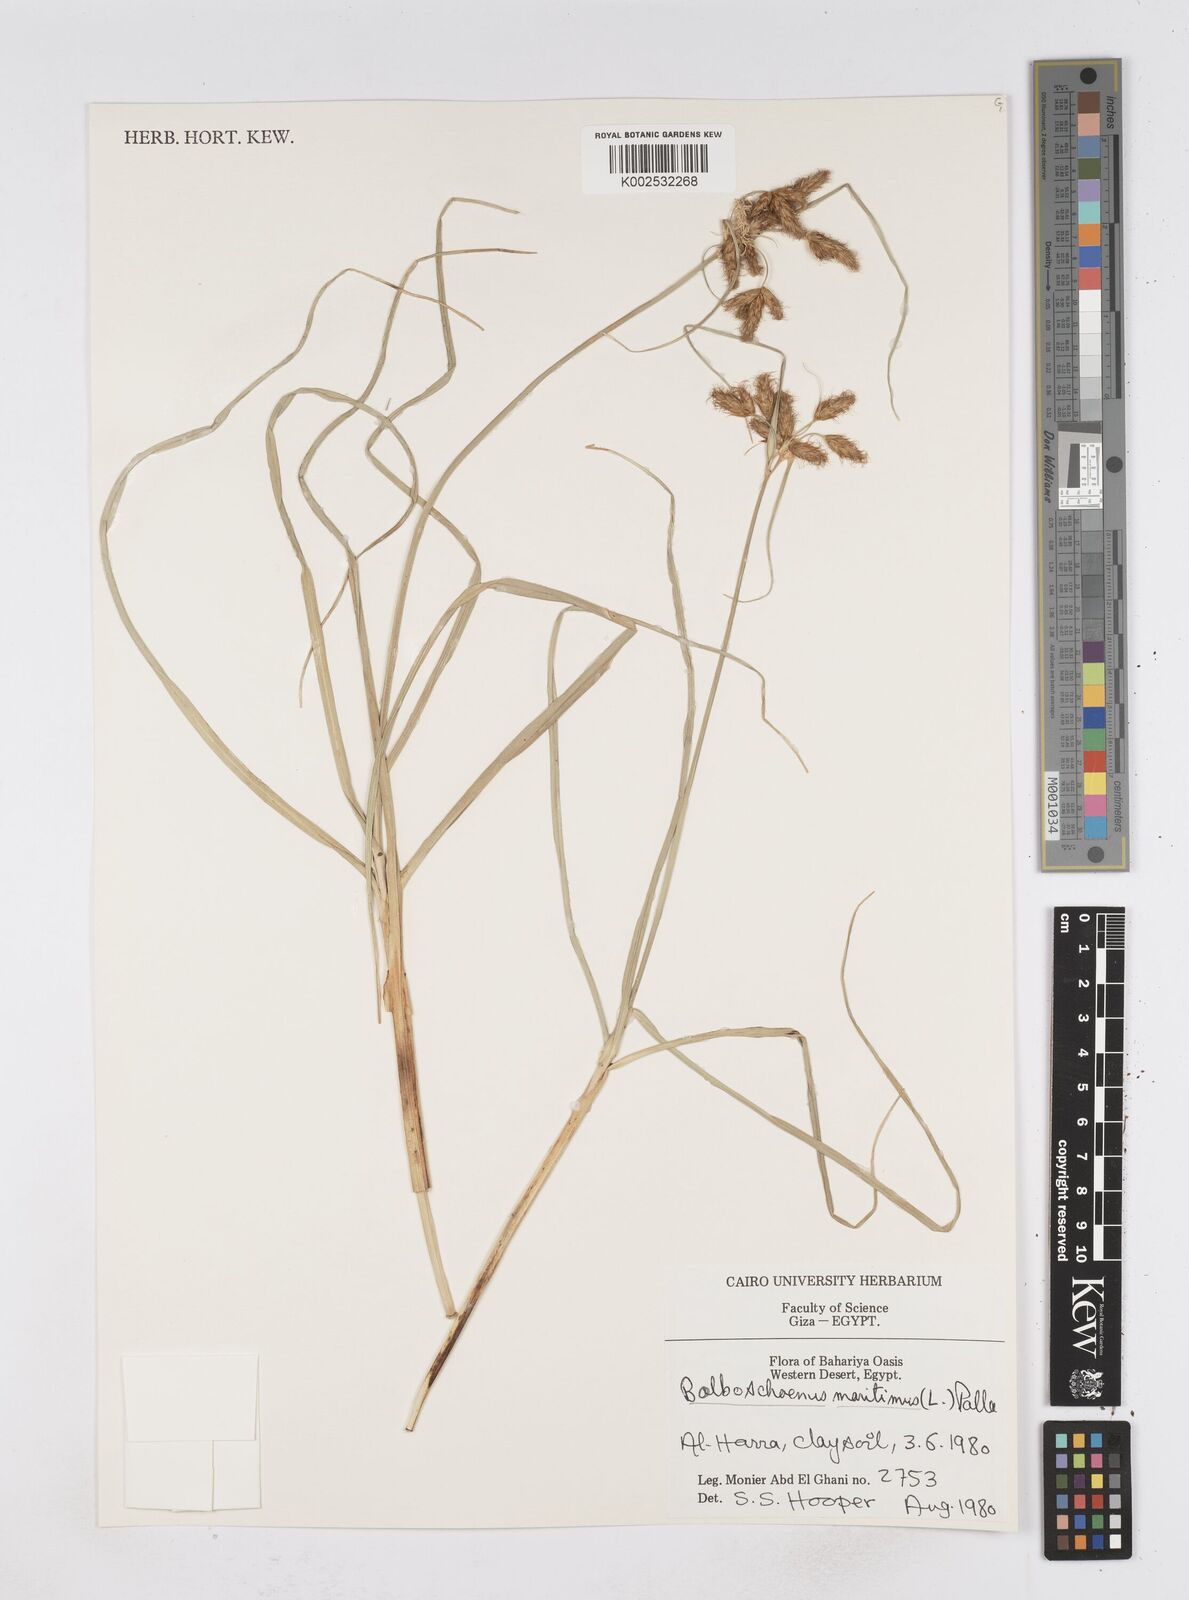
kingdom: Plantae
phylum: Tracheophyta
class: Liliopsida
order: Poales
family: Cyperaceae
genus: Bolboschoenus
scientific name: Bolboschoenus maritimus
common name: Sea club-rush
